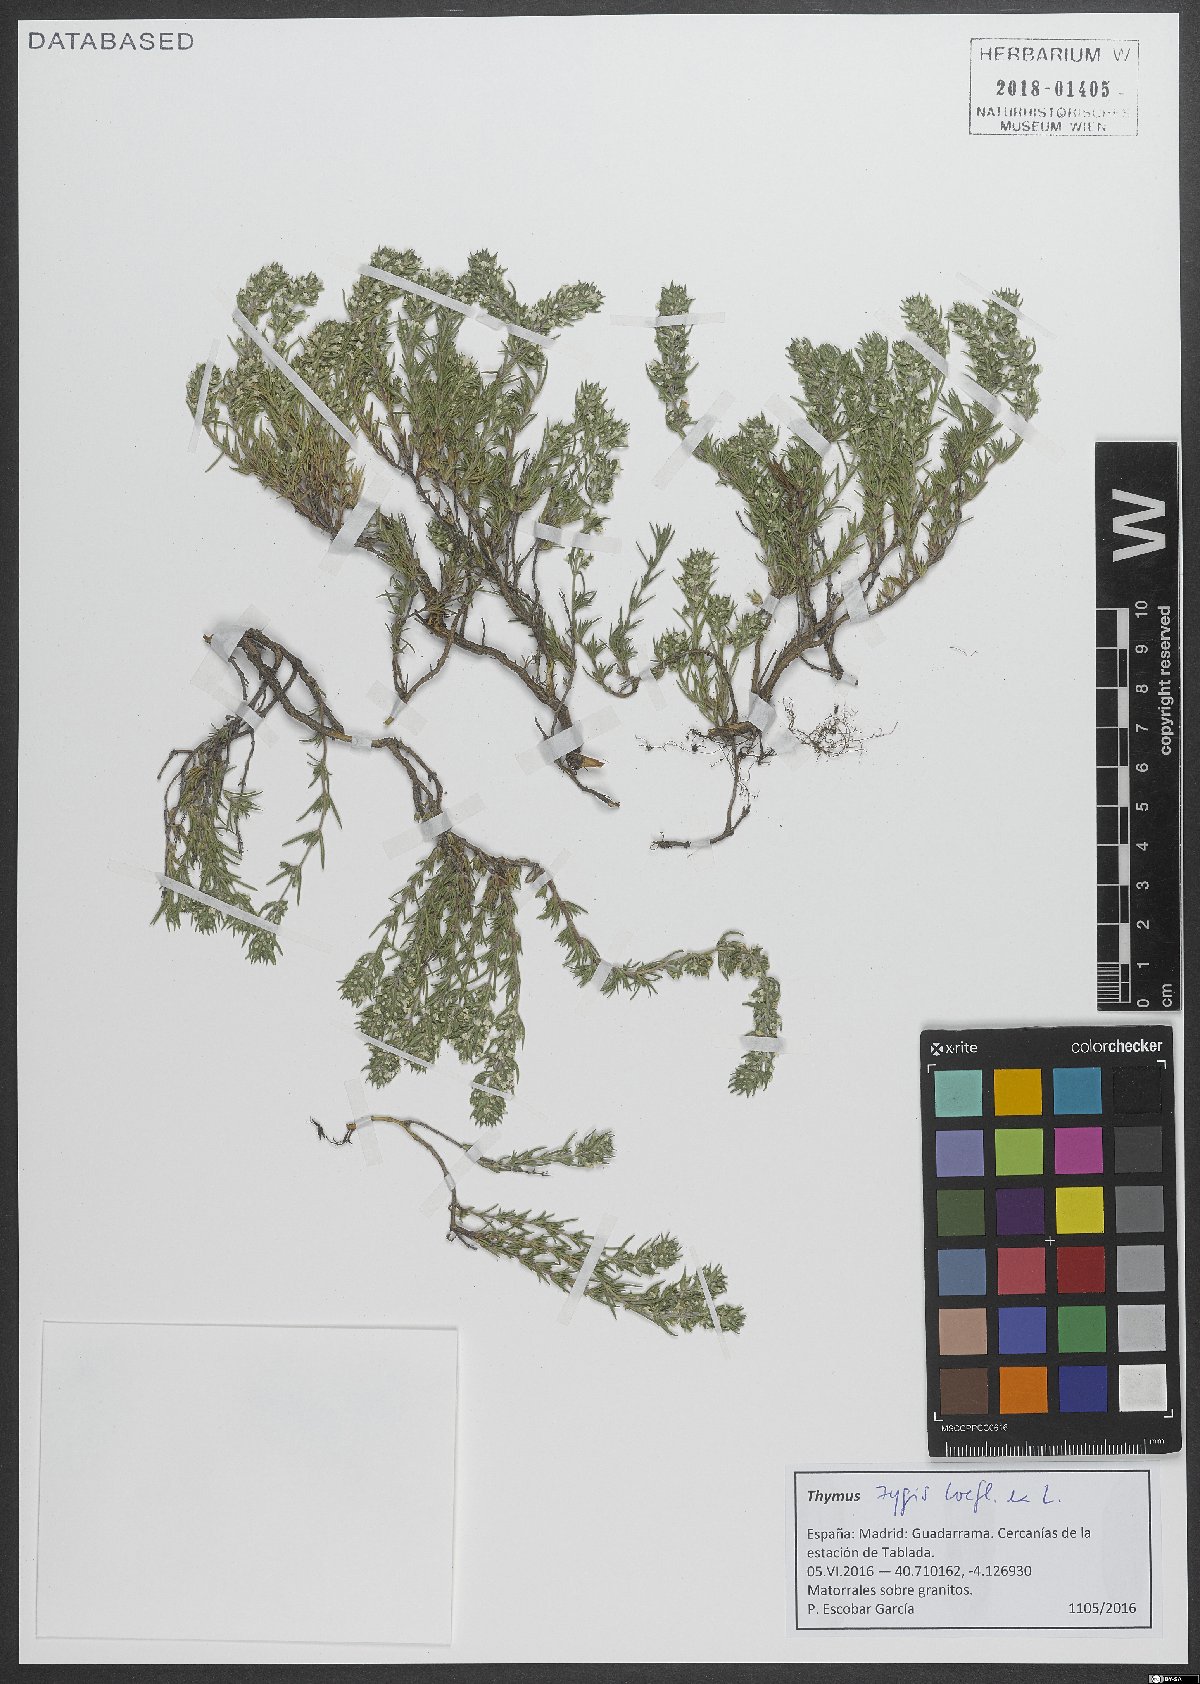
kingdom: Plantae
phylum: Tracheophyta
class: Magnoliopsida
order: Lamiales
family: Lamiaceae
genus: Thymus
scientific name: Thymus zygis
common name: White thyme
